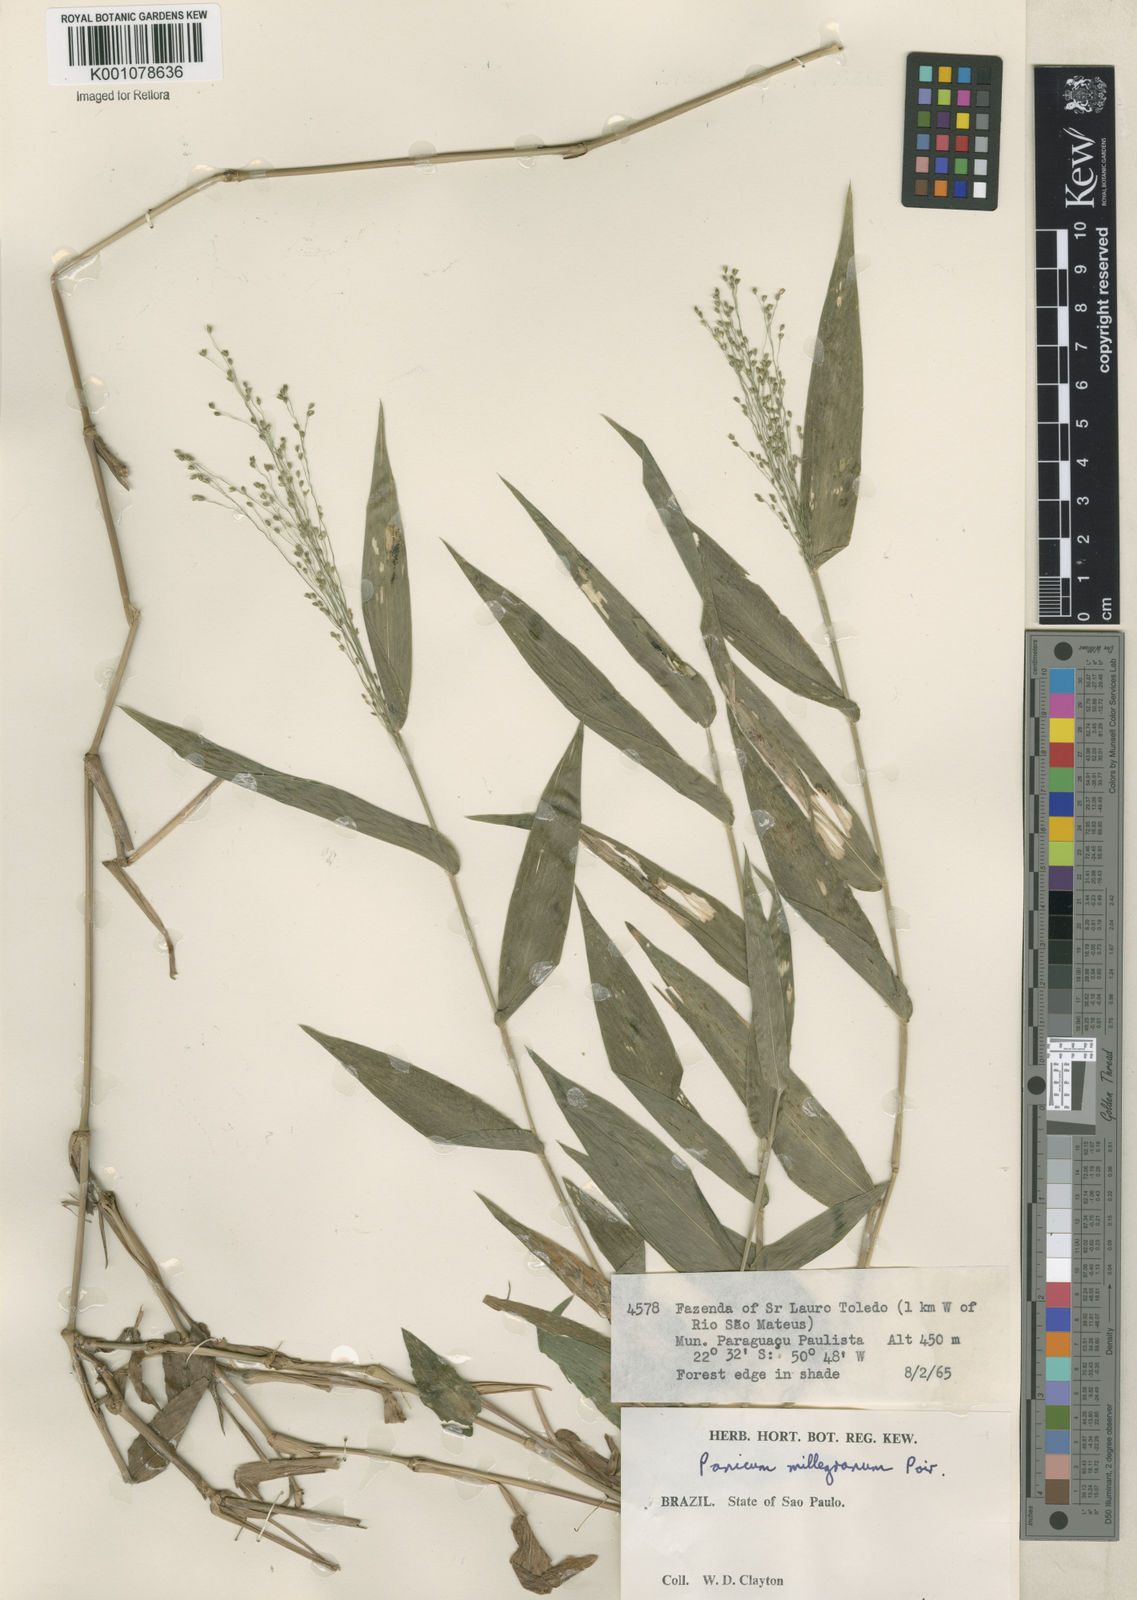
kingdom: Plantae
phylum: Tracheophyta
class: Liliopsida
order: Poales
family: Poaceae
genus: Panicum
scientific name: Panicum millegrana
